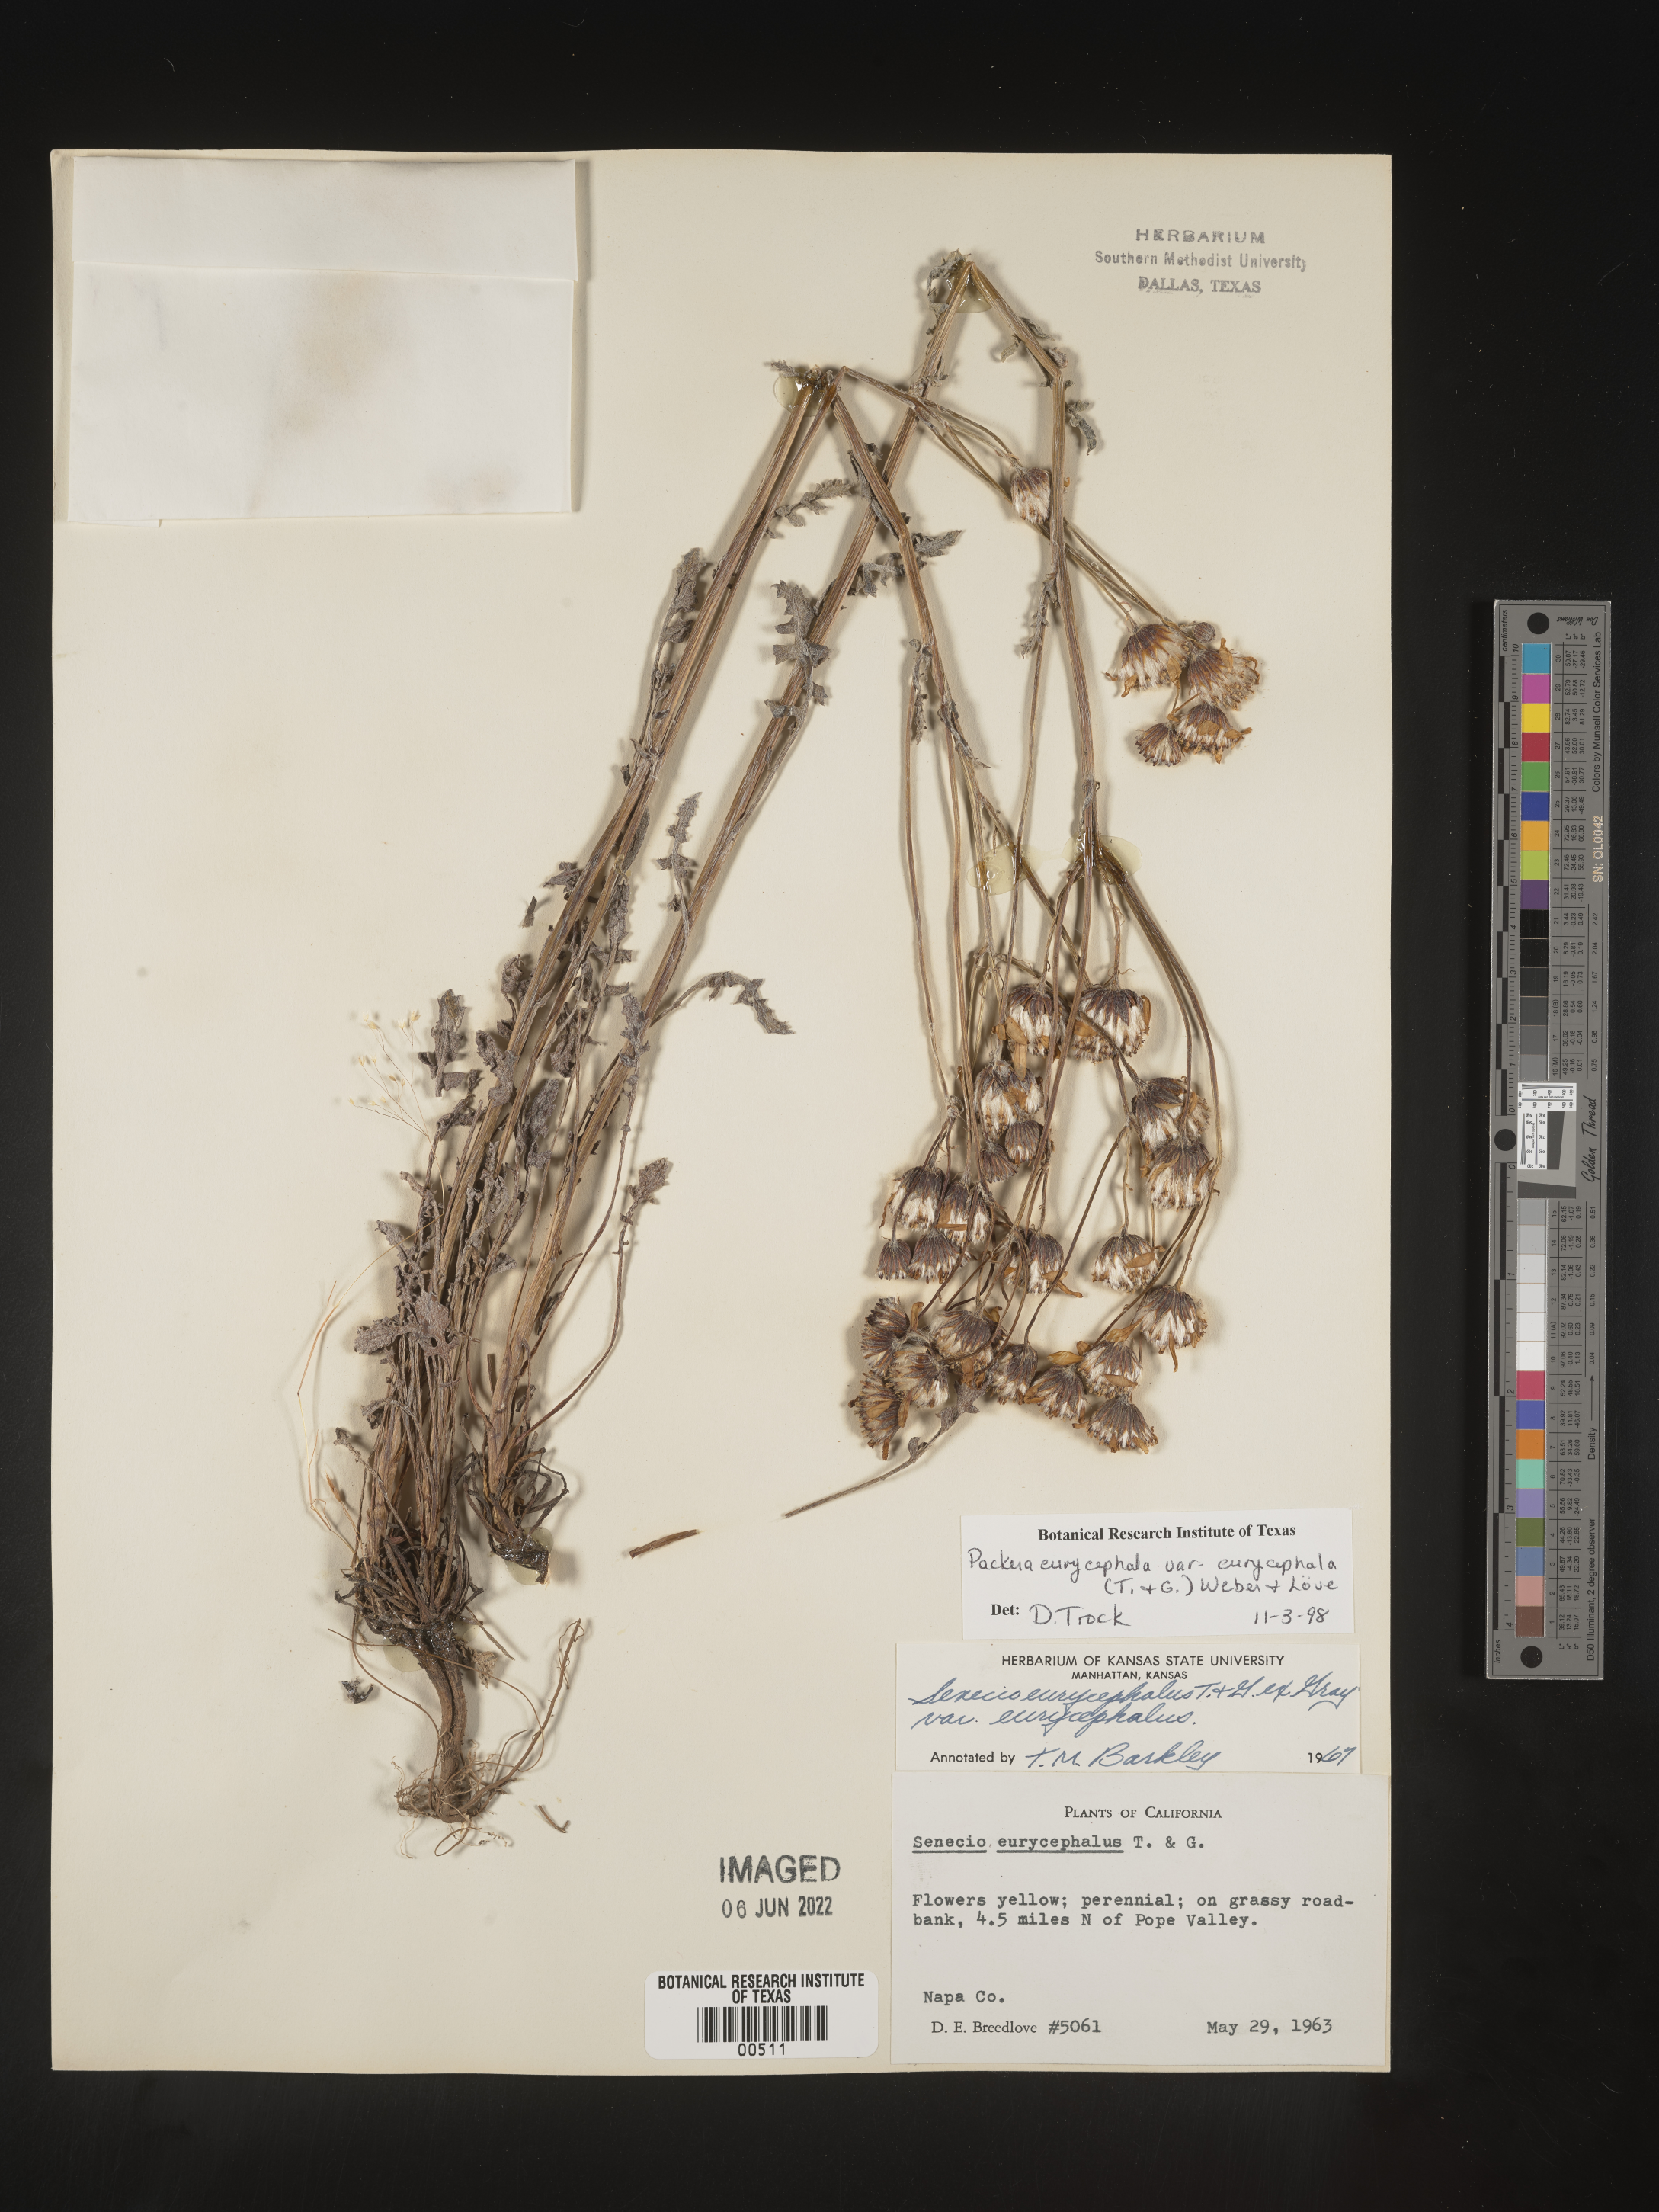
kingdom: Plantae
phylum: Tracheophyta
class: Magnoliopsida
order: Asterales
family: Asteraceae
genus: Packera
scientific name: Packera eurycephala
